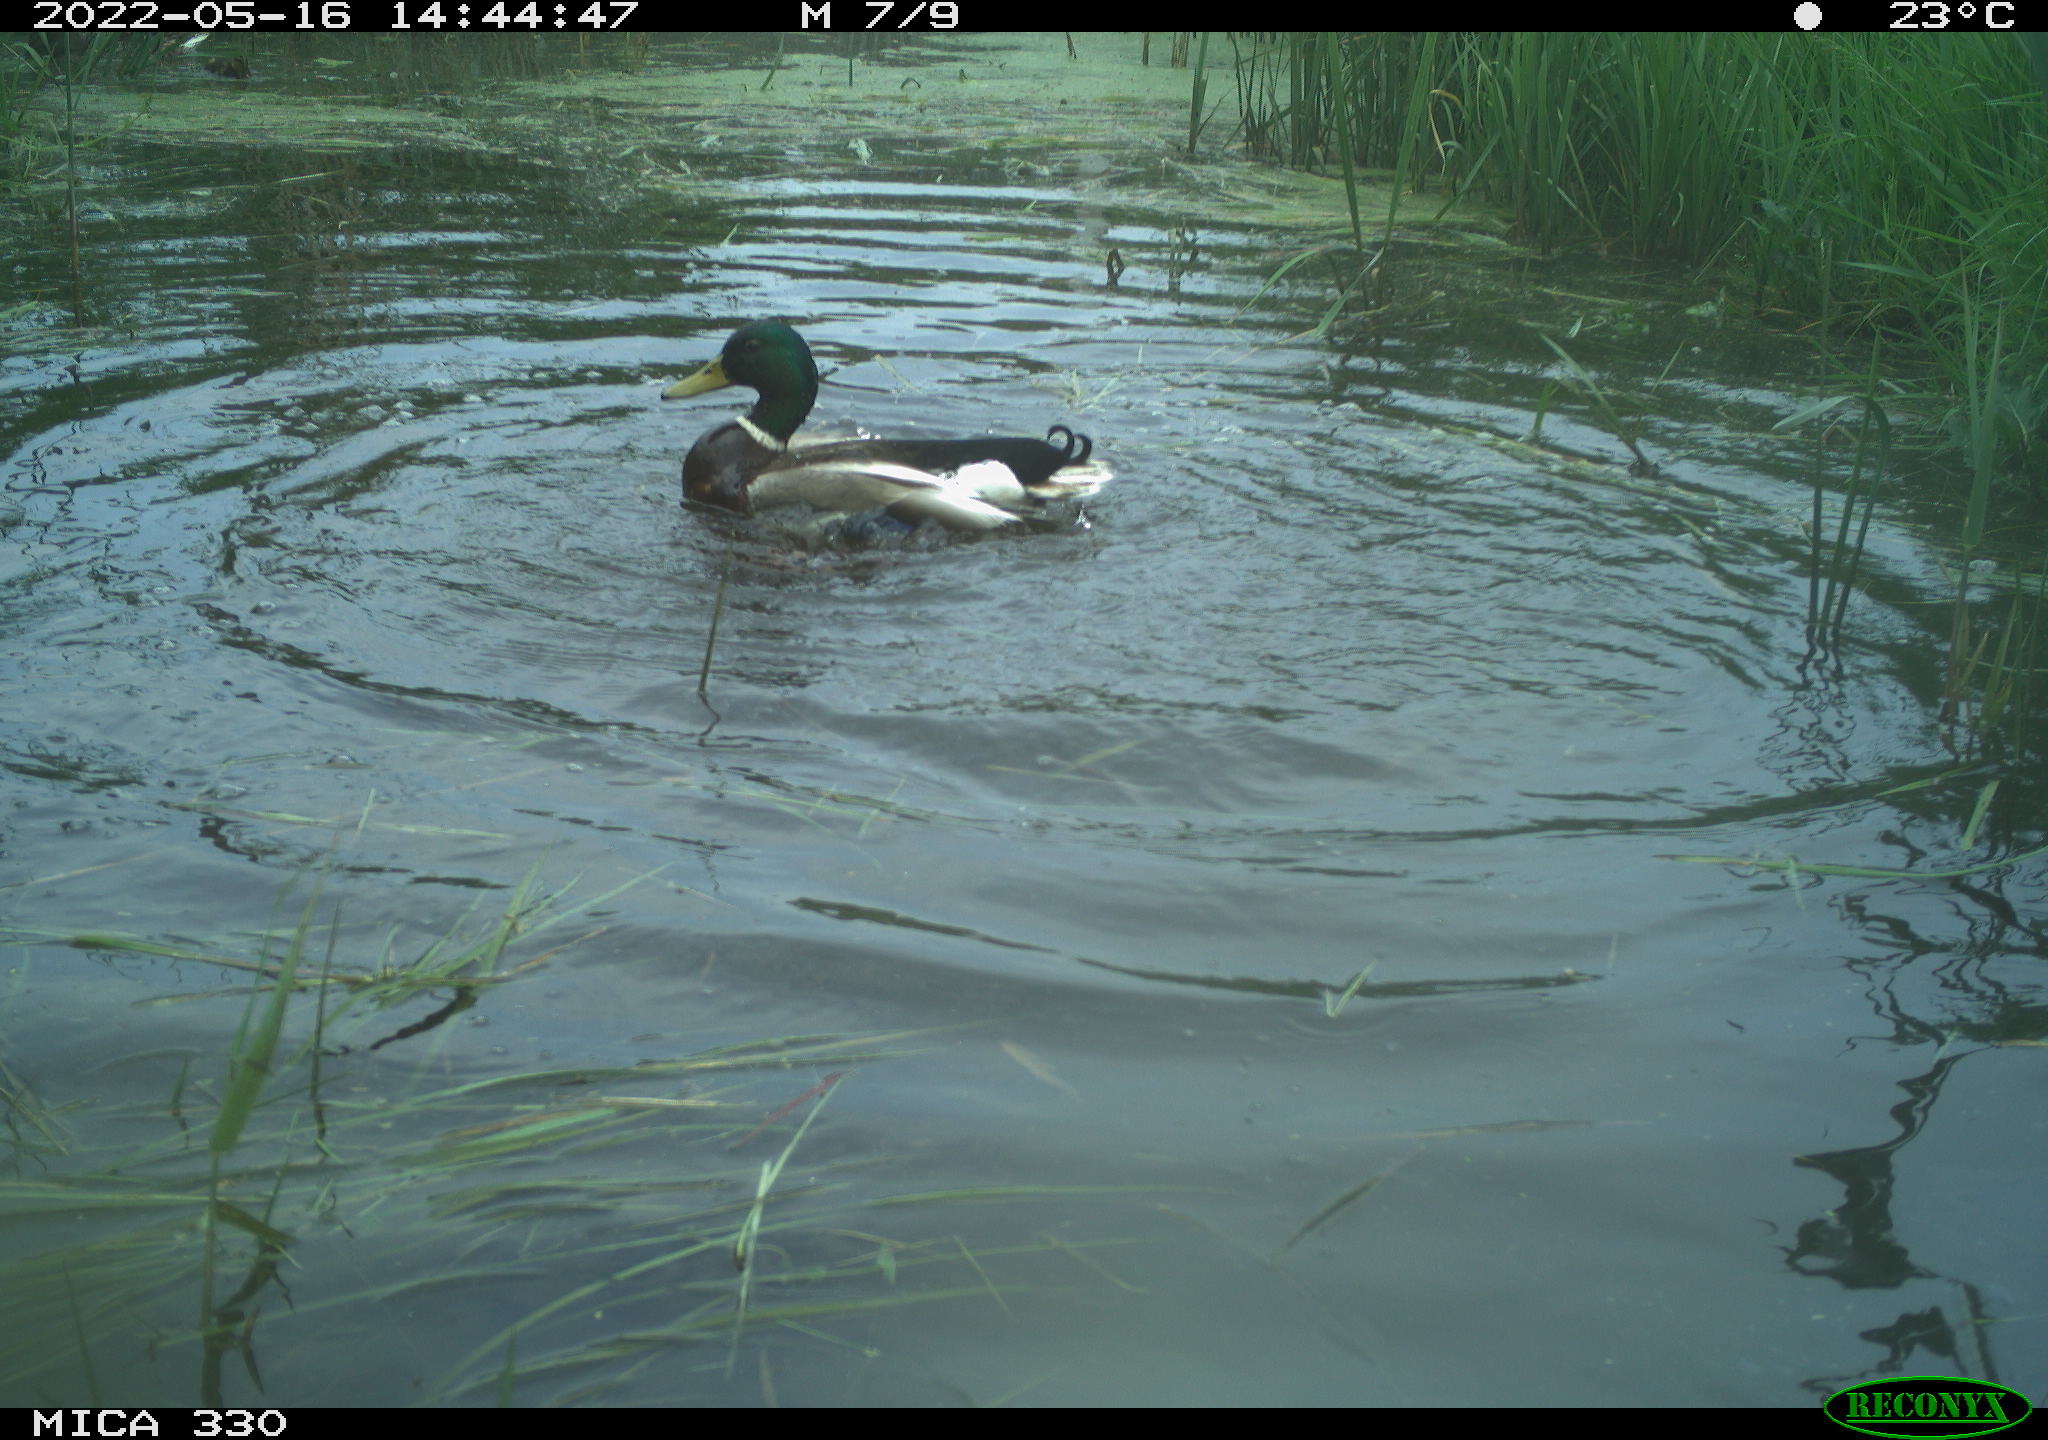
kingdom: Animalia
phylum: Chordata
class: Aves
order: Anseriformes
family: Anatidae
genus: Anas
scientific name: Anas platyrhynchos
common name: Mallard
